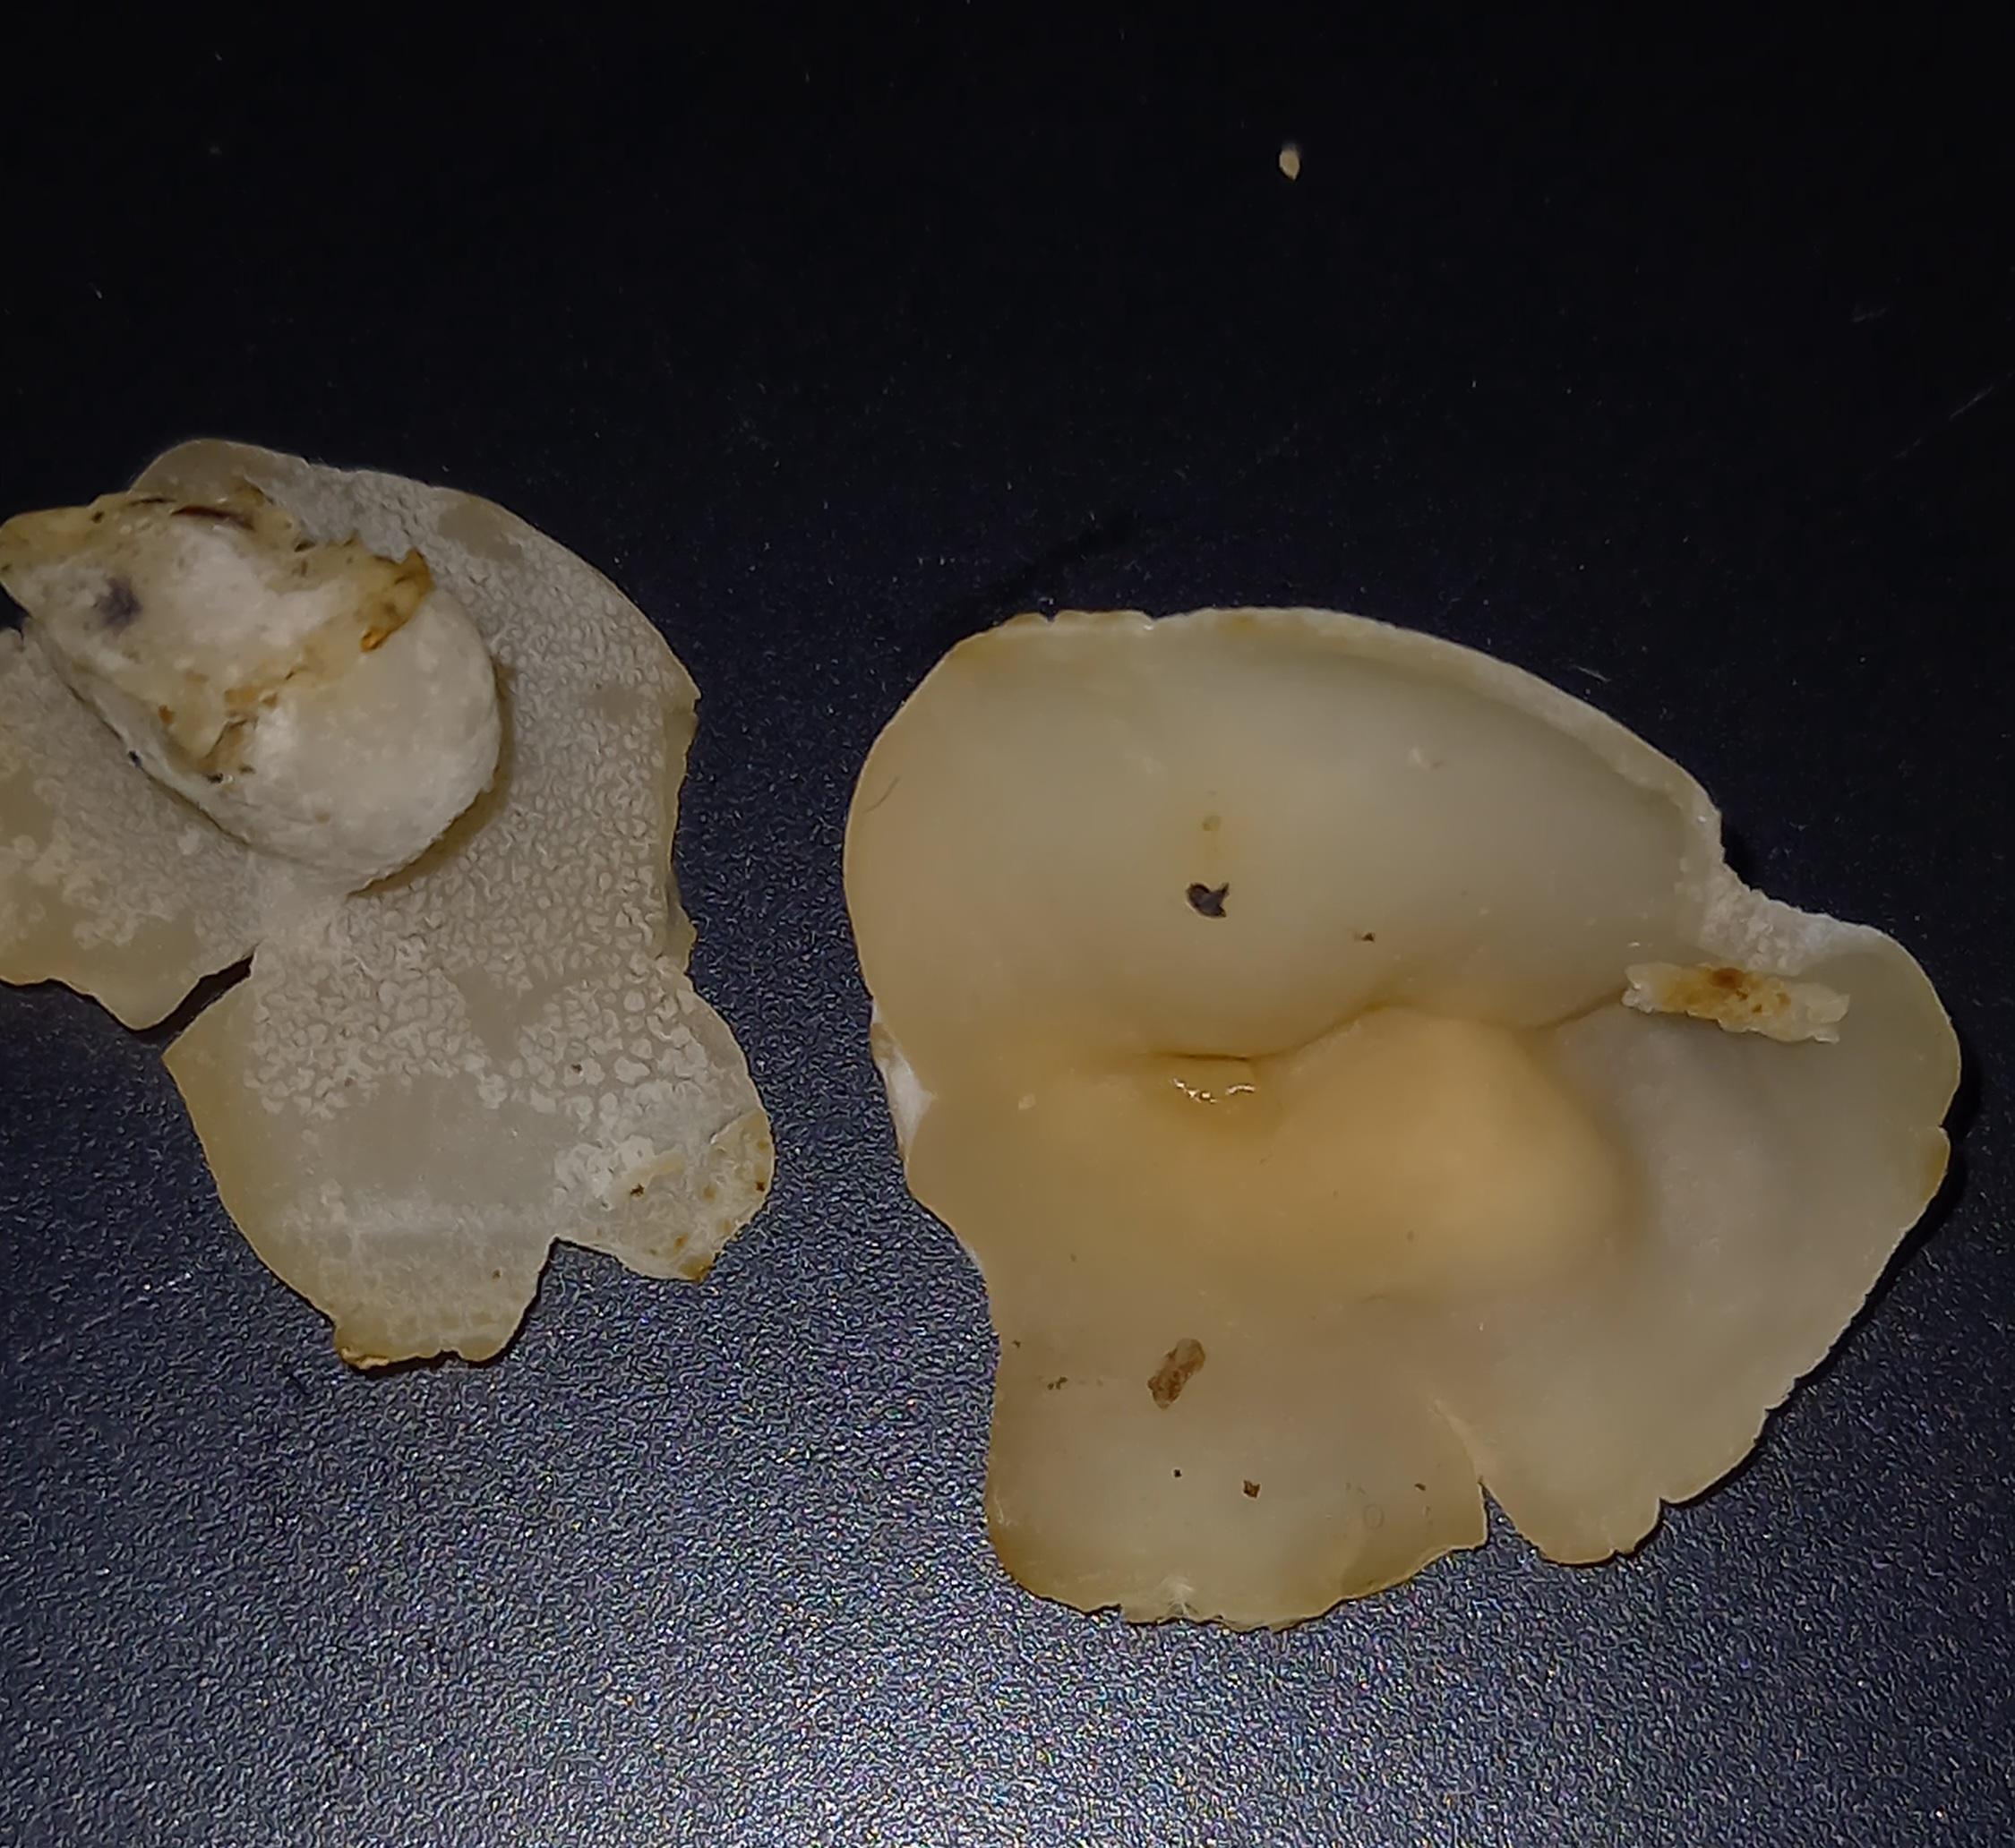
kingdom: Fungi
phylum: Ascomycota
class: Pezizomycetes
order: Pezizales
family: Pezizaceae
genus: Peziza
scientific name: Peziza varia
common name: Ved-bægersvamp
